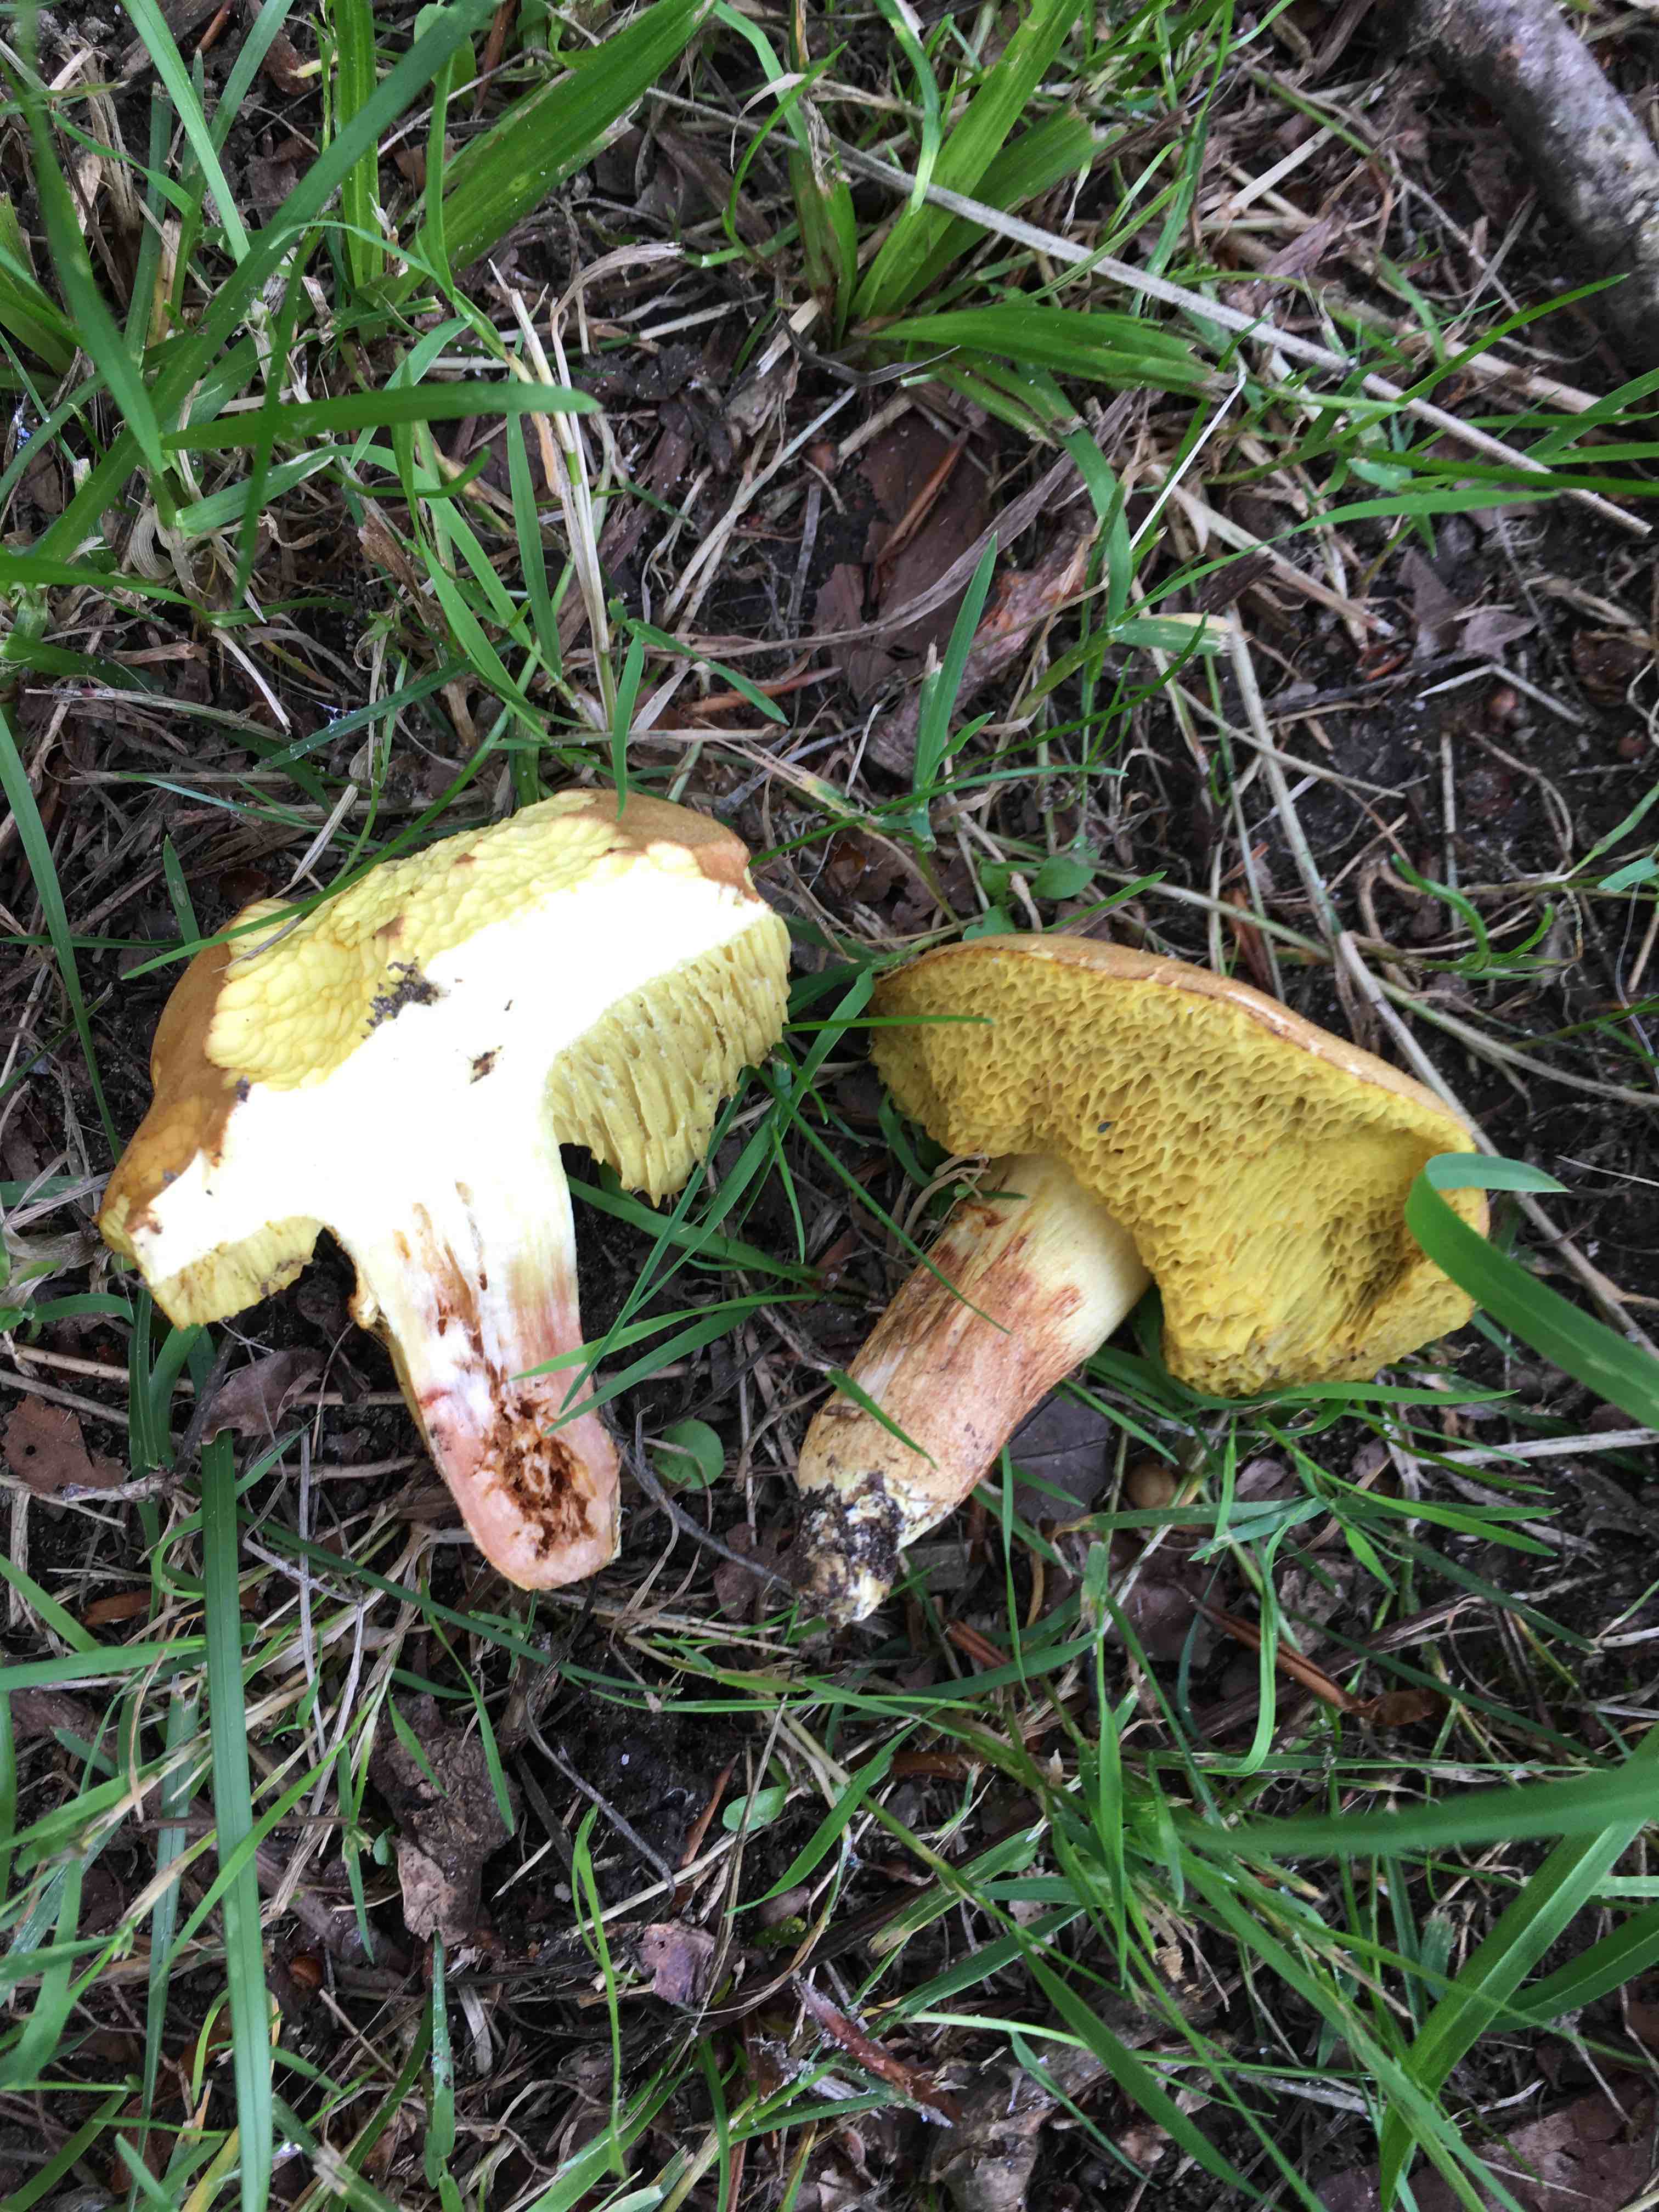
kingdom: Fungi
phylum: Basidiomycota
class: Agaricomycetes
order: Boletales
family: Boletaceae
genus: Xerocomus
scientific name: Xerocomus subtomentosus
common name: filtet rørhat
